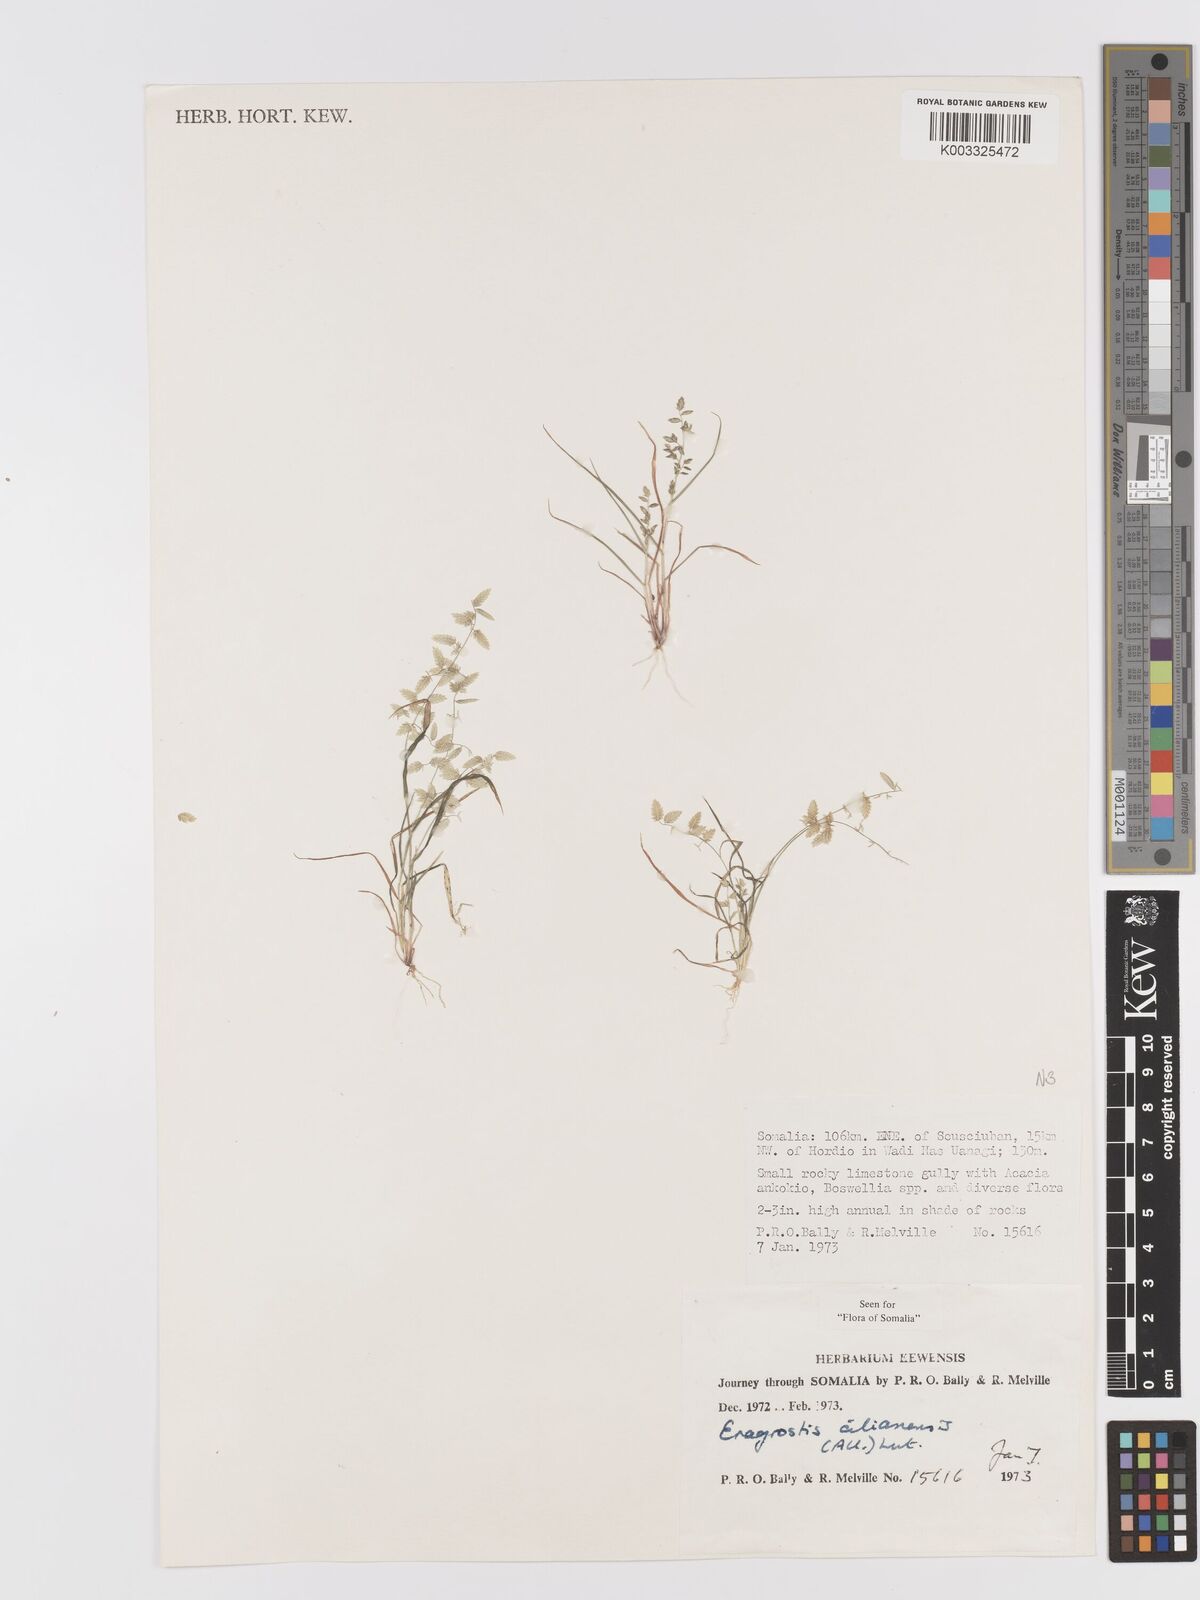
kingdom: Plantae
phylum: Tracheophyta
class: Liliopsida
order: Poales
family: Poaceae
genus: Eragrostis
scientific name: Eragrostis cilianensis
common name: Stinkgrass
